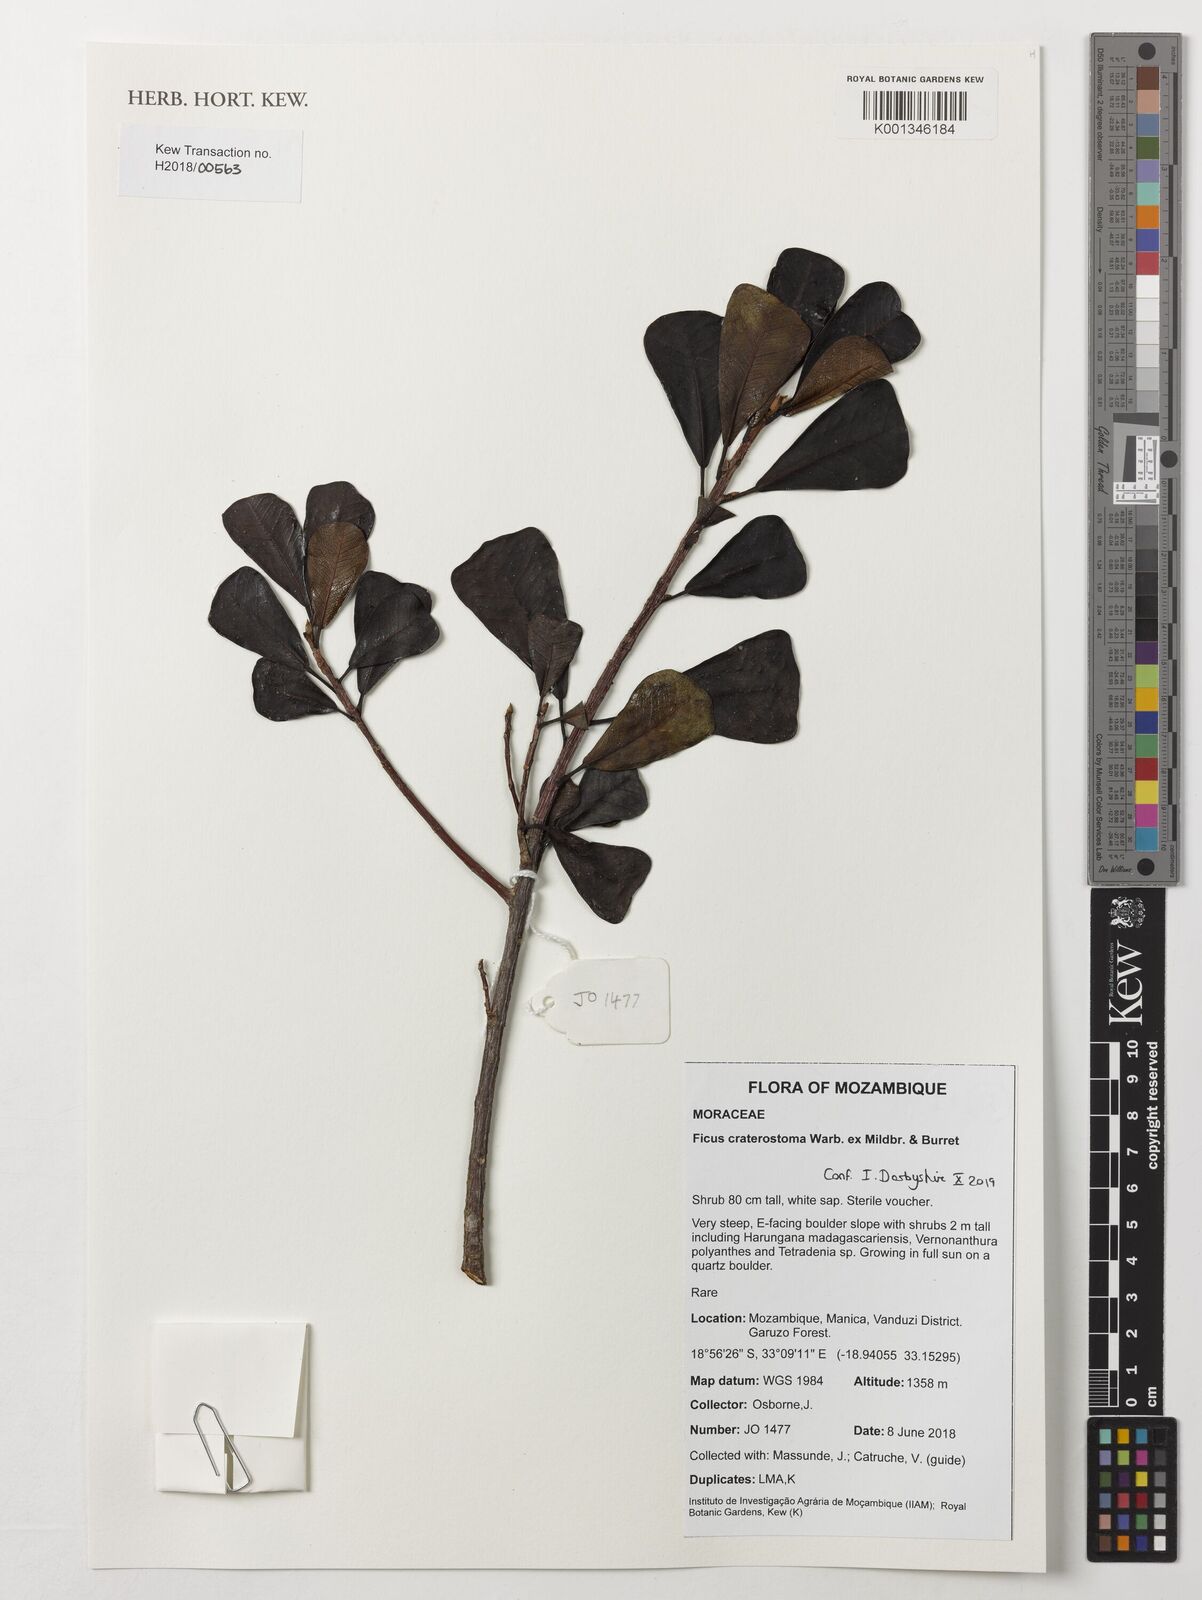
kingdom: Plantae
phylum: Tracheophyta
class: Magnoliopsida
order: Rosales
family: Moraceae
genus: Ficus
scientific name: Ficus craterostoma
